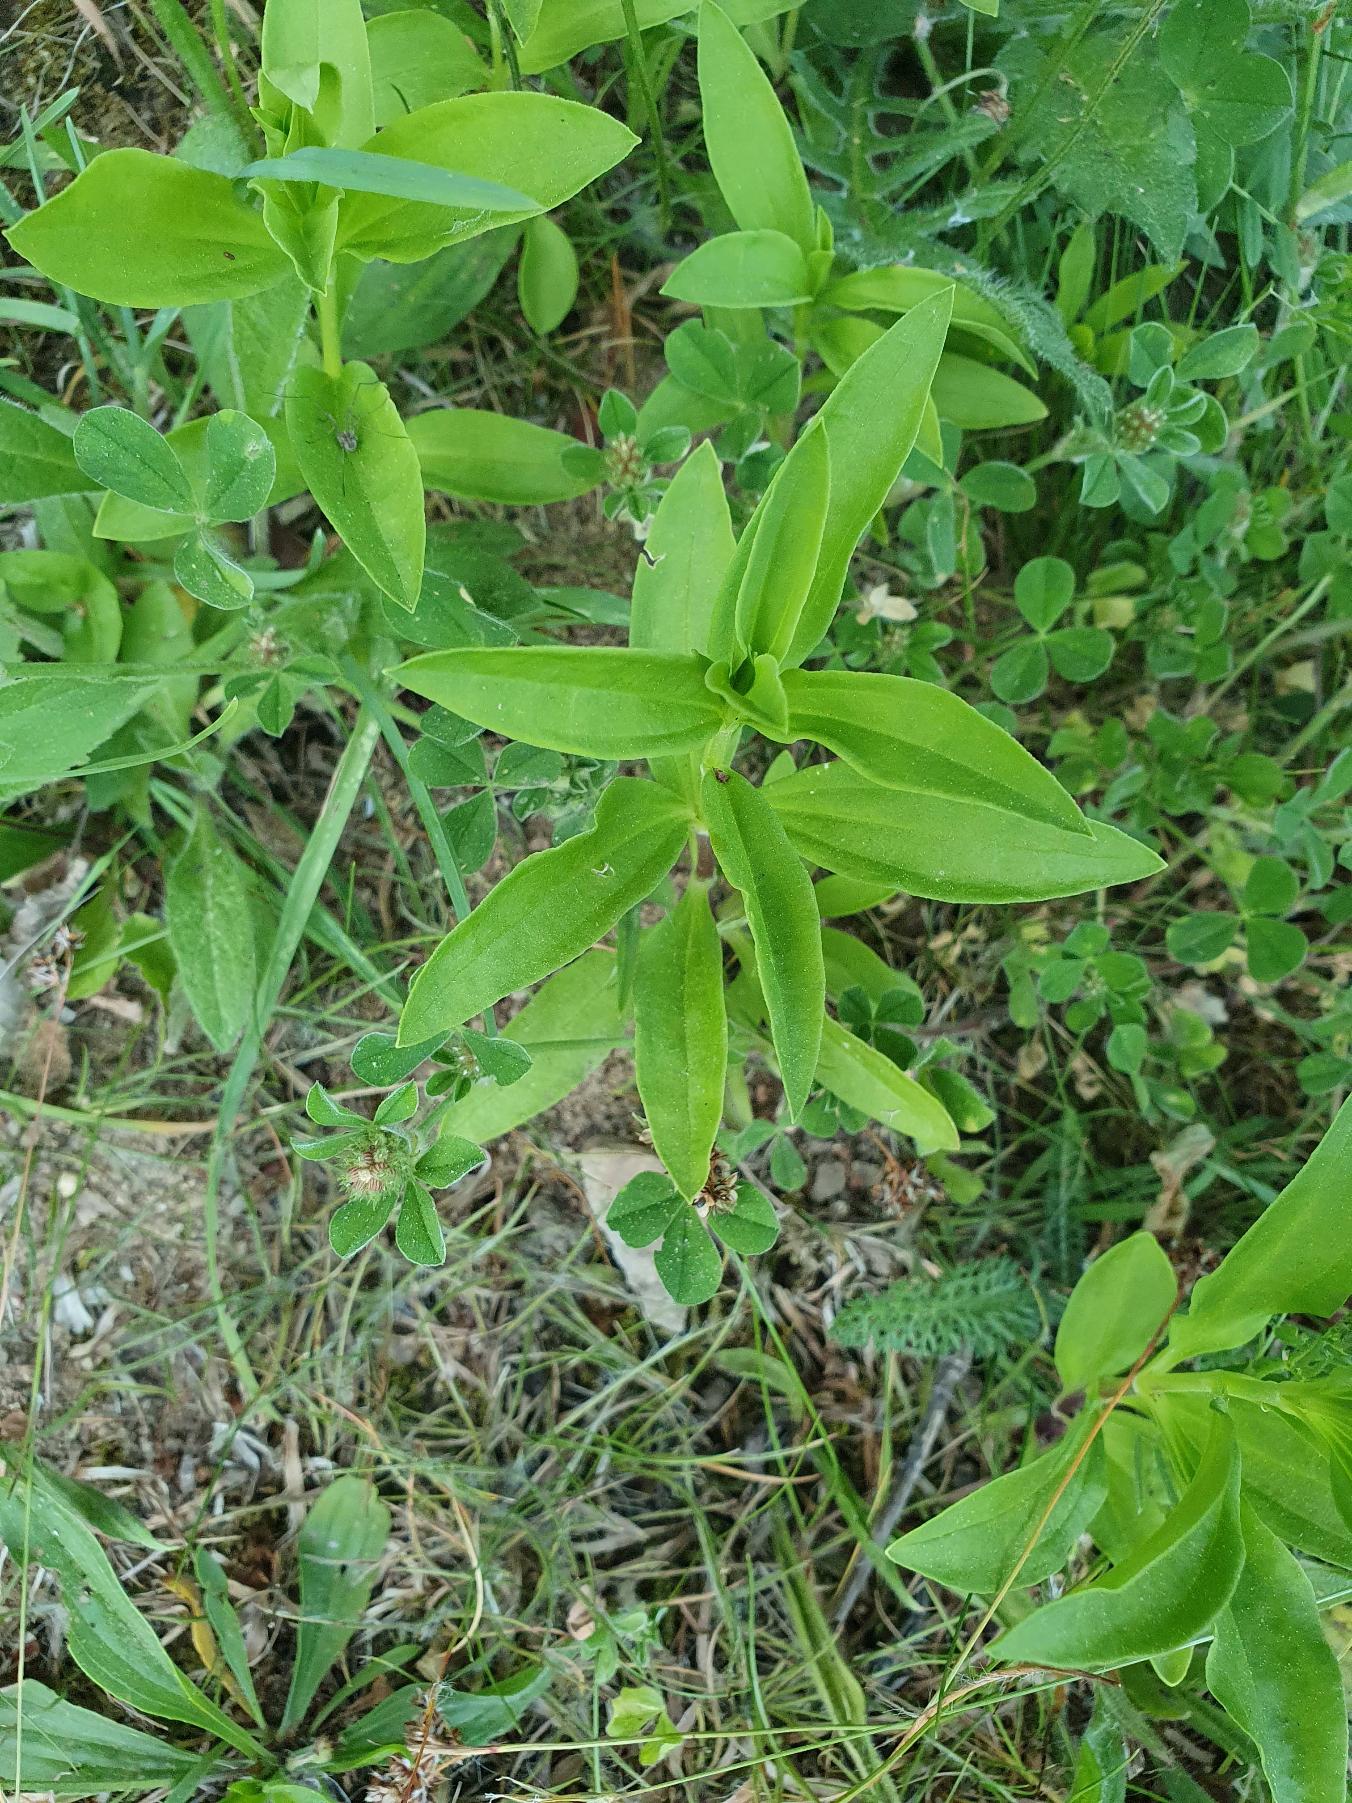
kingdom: Plantae
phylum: Tracheophyta
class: Magnoliopsida
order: Caryophyllales
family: Caryophyllaceae
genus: Saponaria
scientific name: Saponaria officinalis
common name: Sæbeurt
